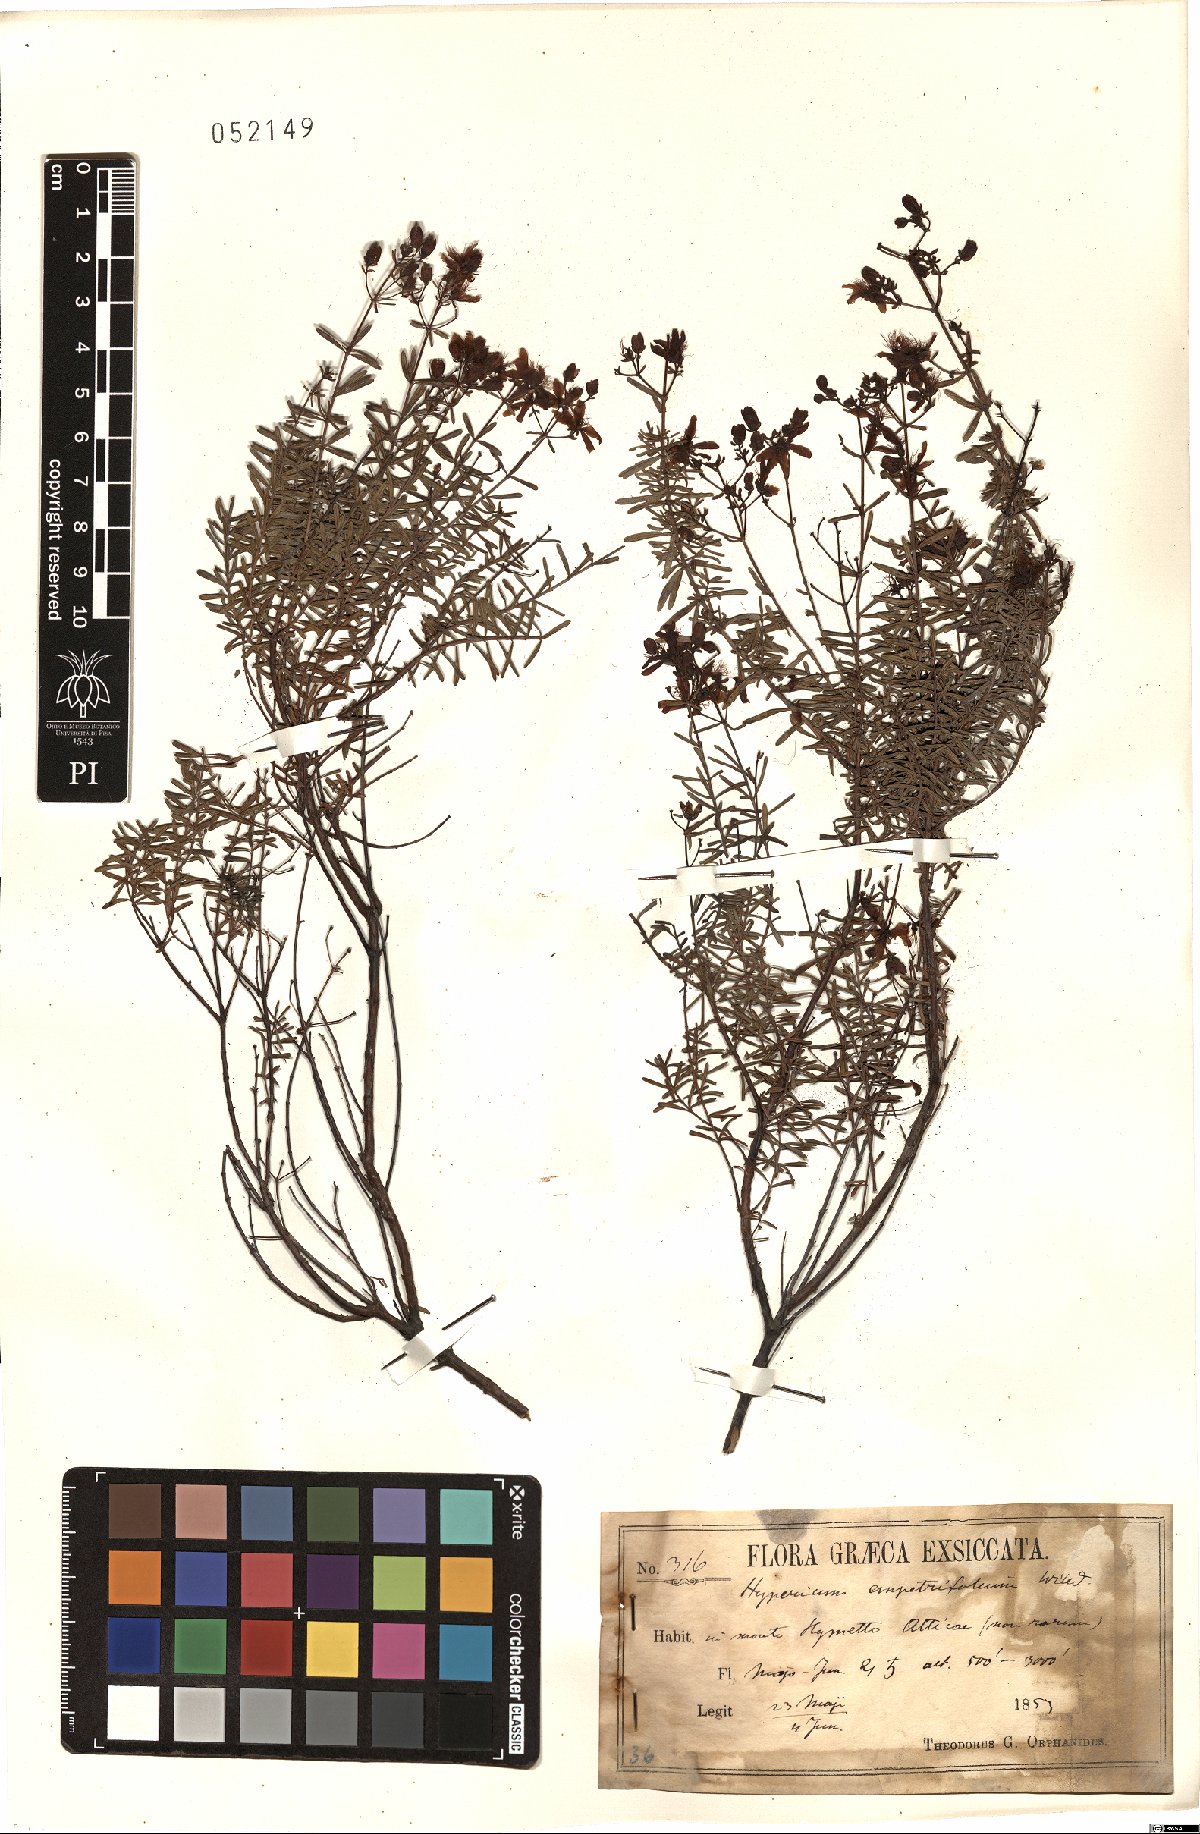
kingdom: Plantae
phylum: Tracheophyta
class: Magnoliopsida
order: Malpighiales
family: Hypericaceae
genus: Hypericum
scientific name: Hypericum empetrifolium
